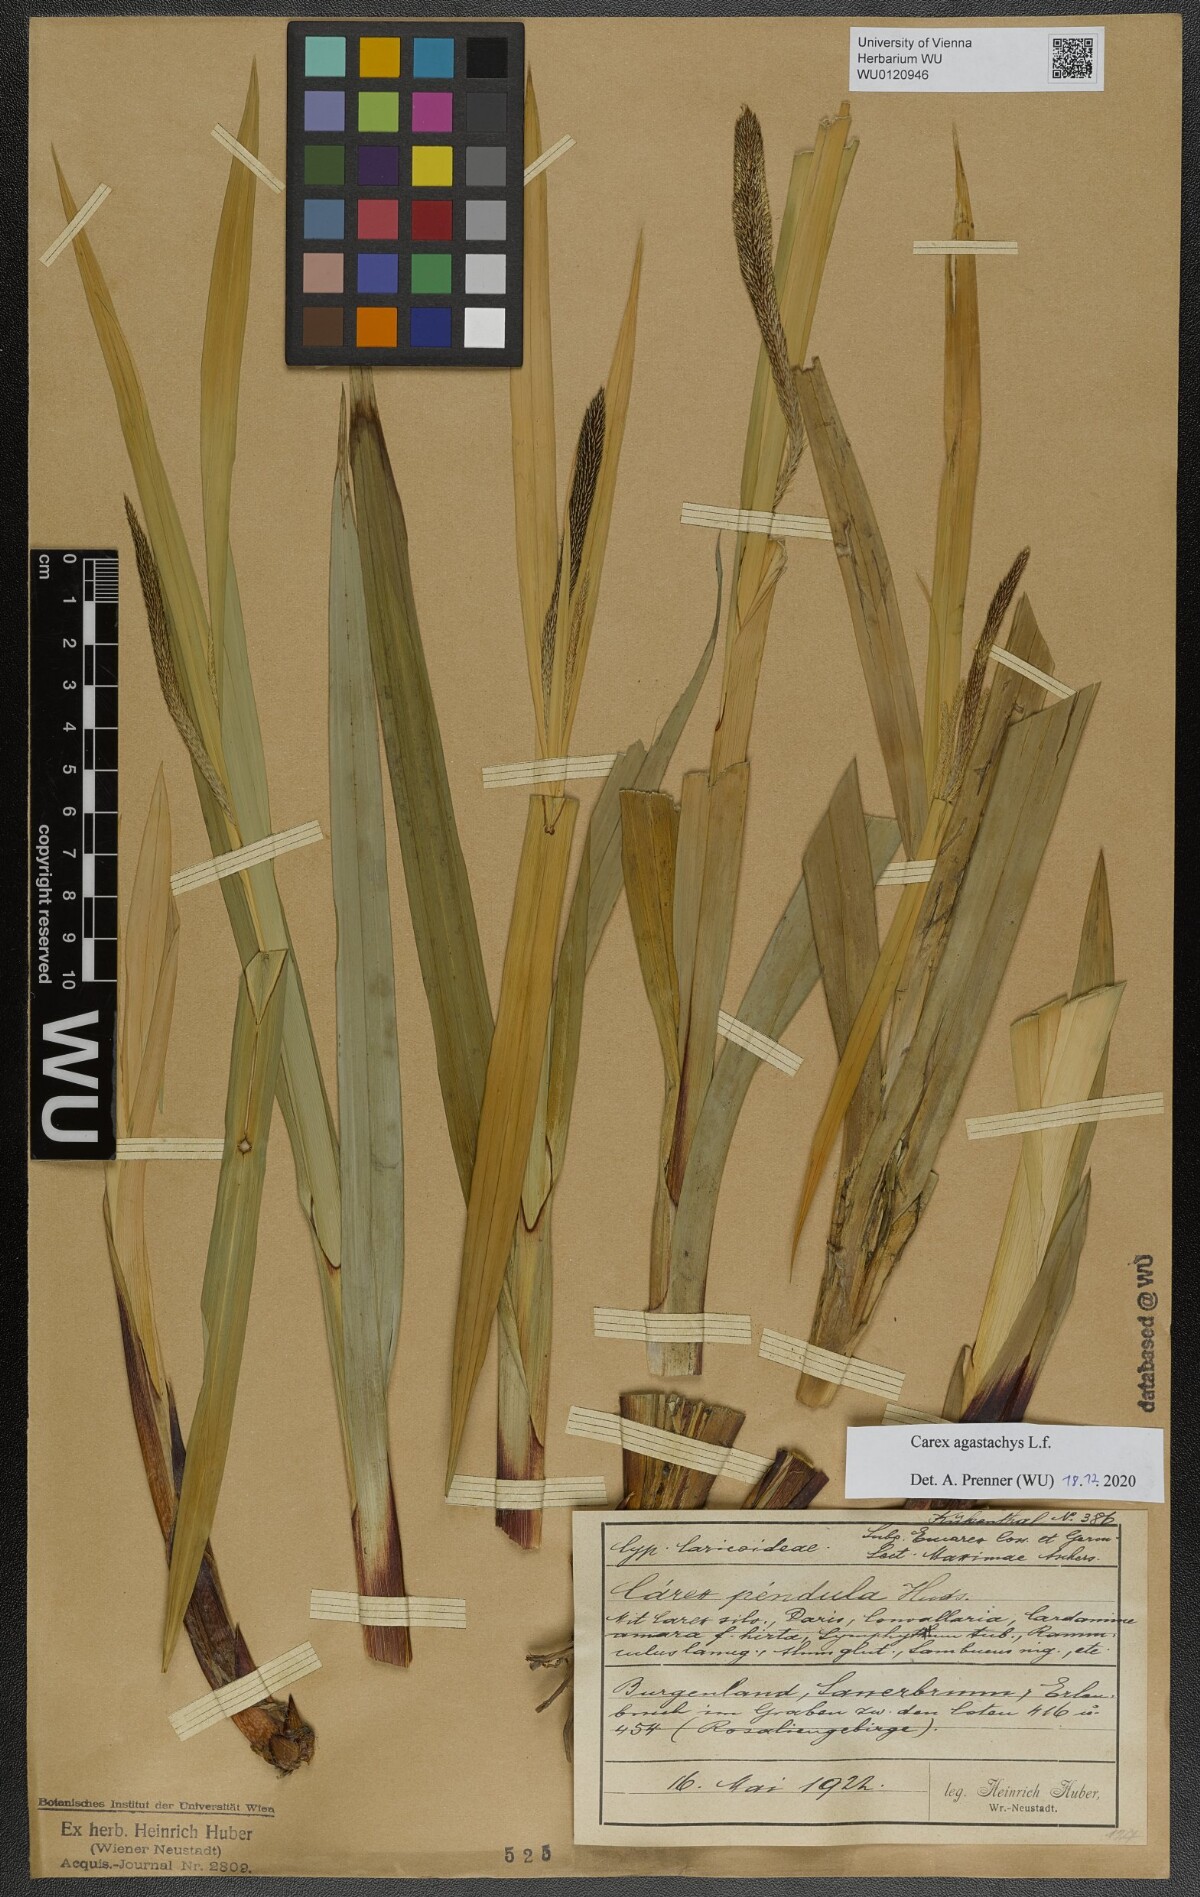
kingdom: Plantae
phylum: Tracheophyta
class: Liliopsida
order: Poales
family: Cyperaceae
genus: Carex
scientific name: Carex agastachys
